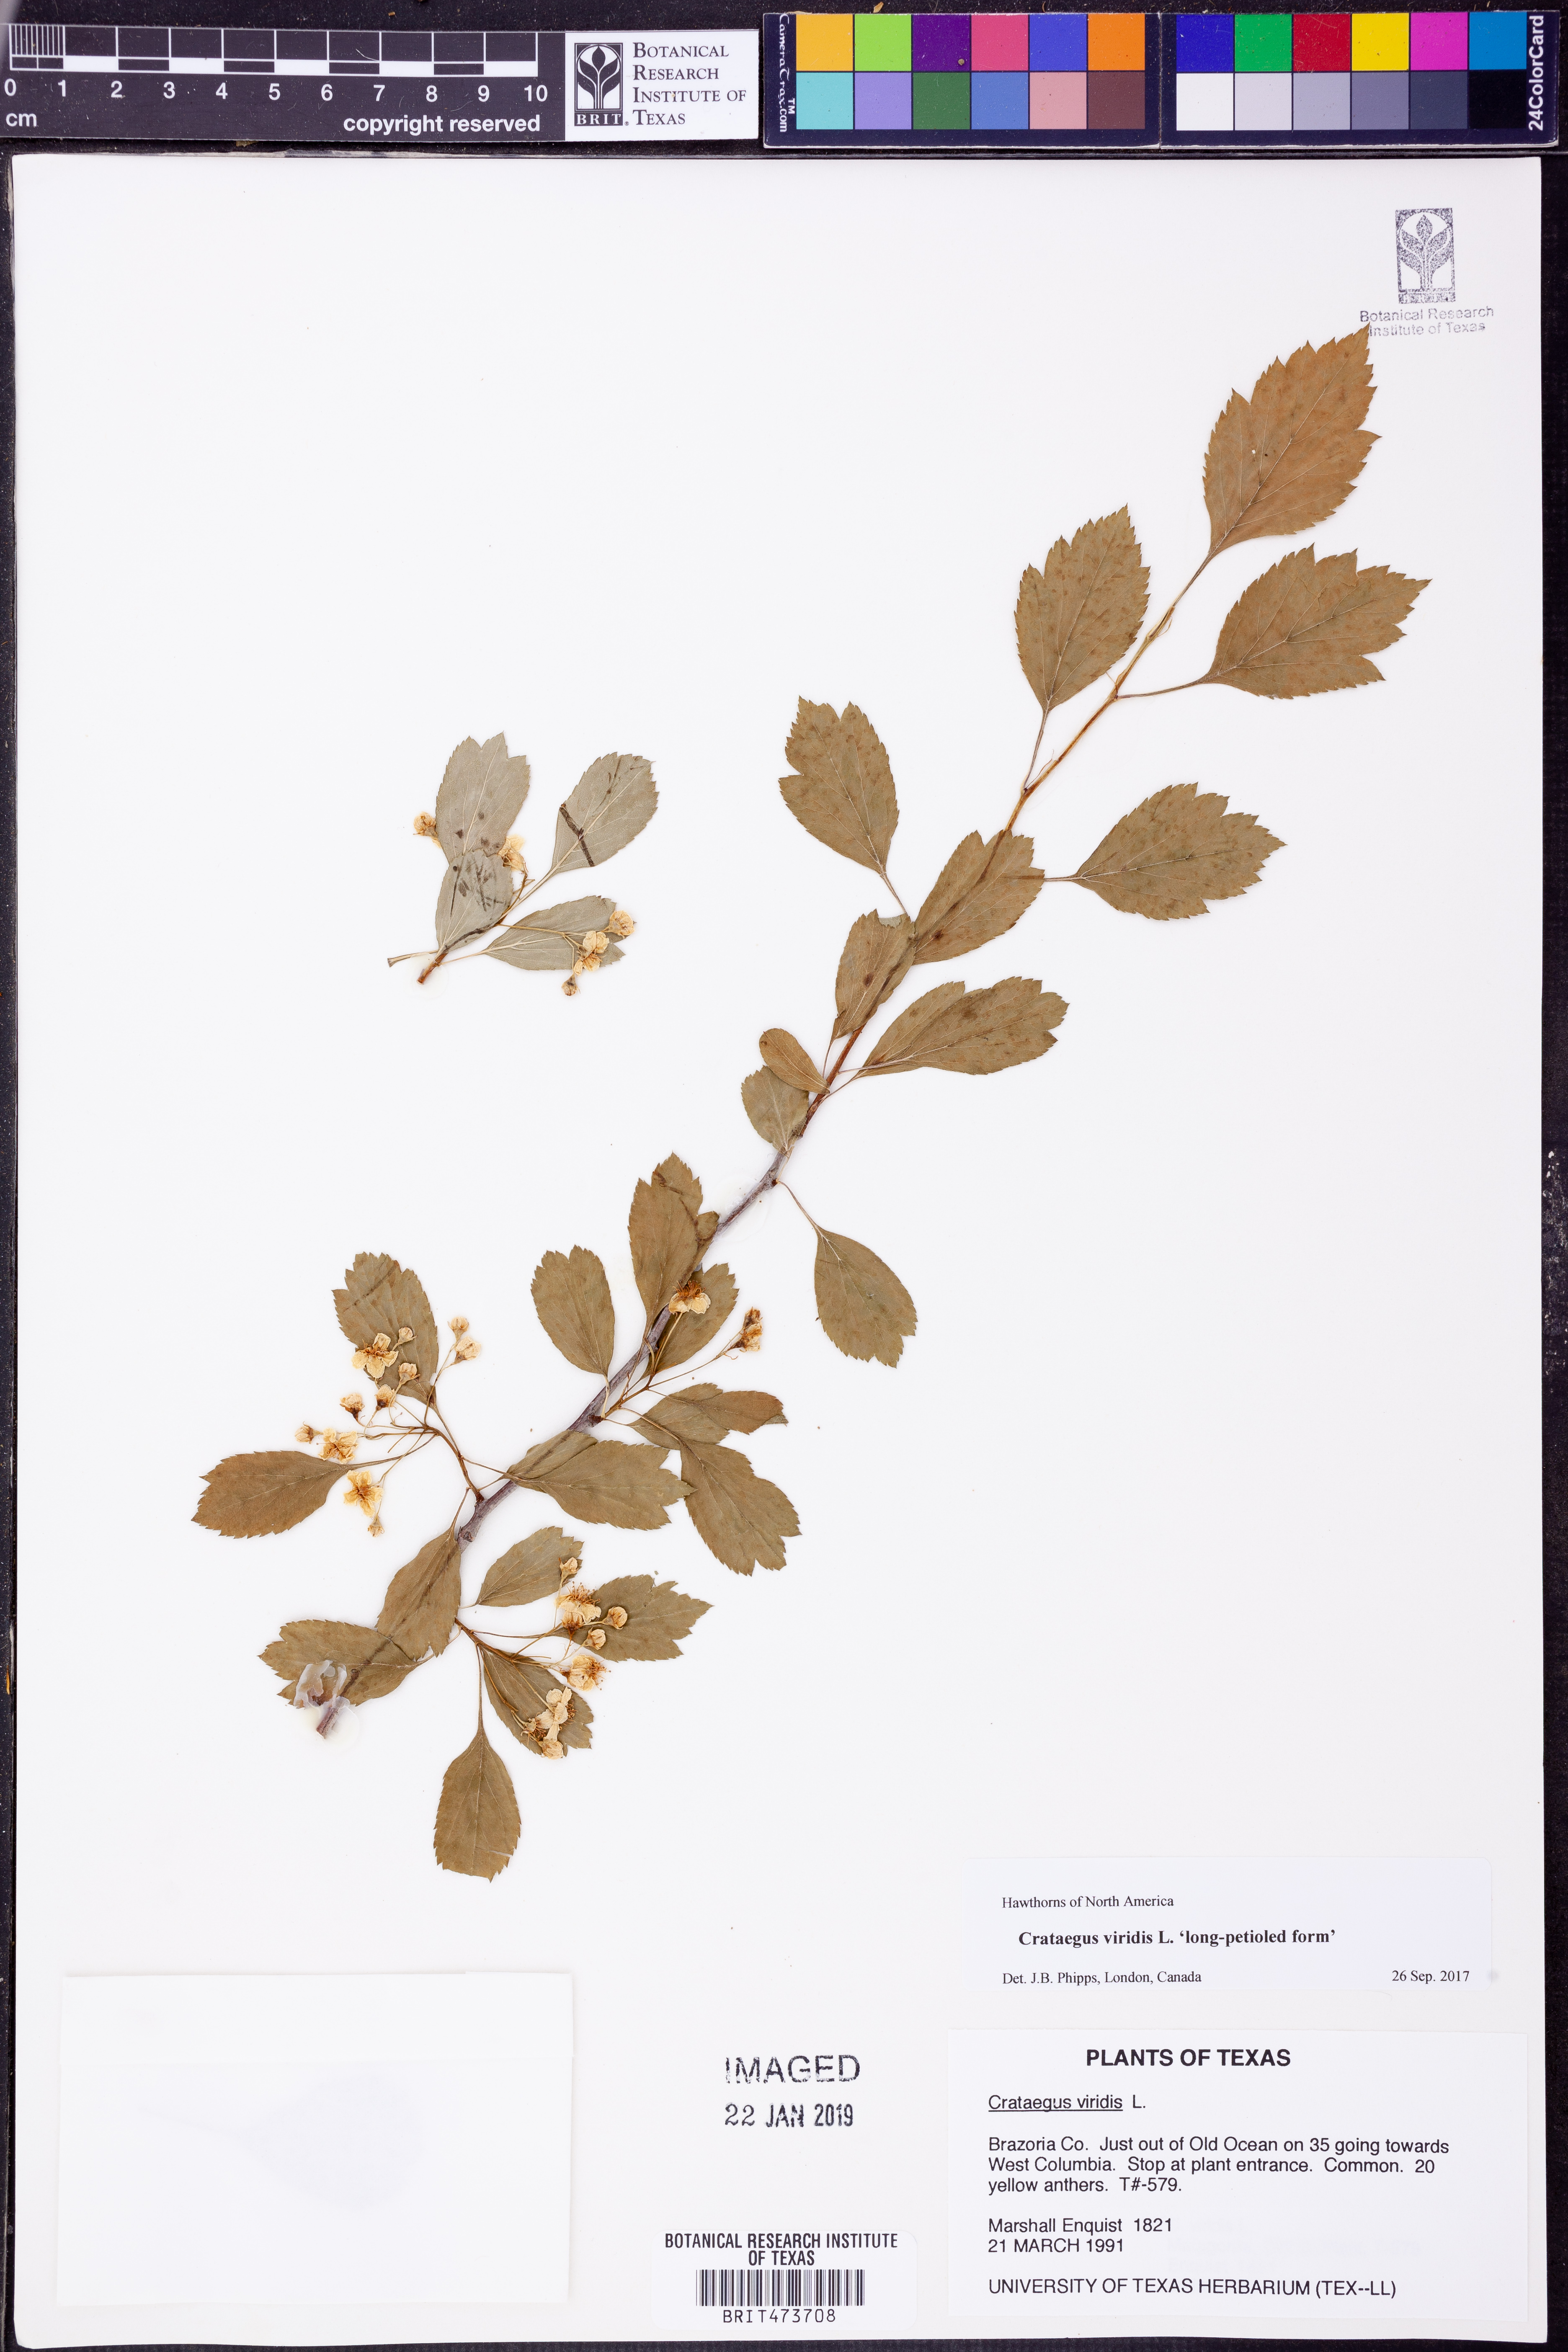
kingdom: Plantae
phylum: Tracheophyta
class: Magnoliopsida
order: Rosales
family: Rosaceae
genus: Crataegus
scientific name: Crataegus viridis
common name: Southernthorn
